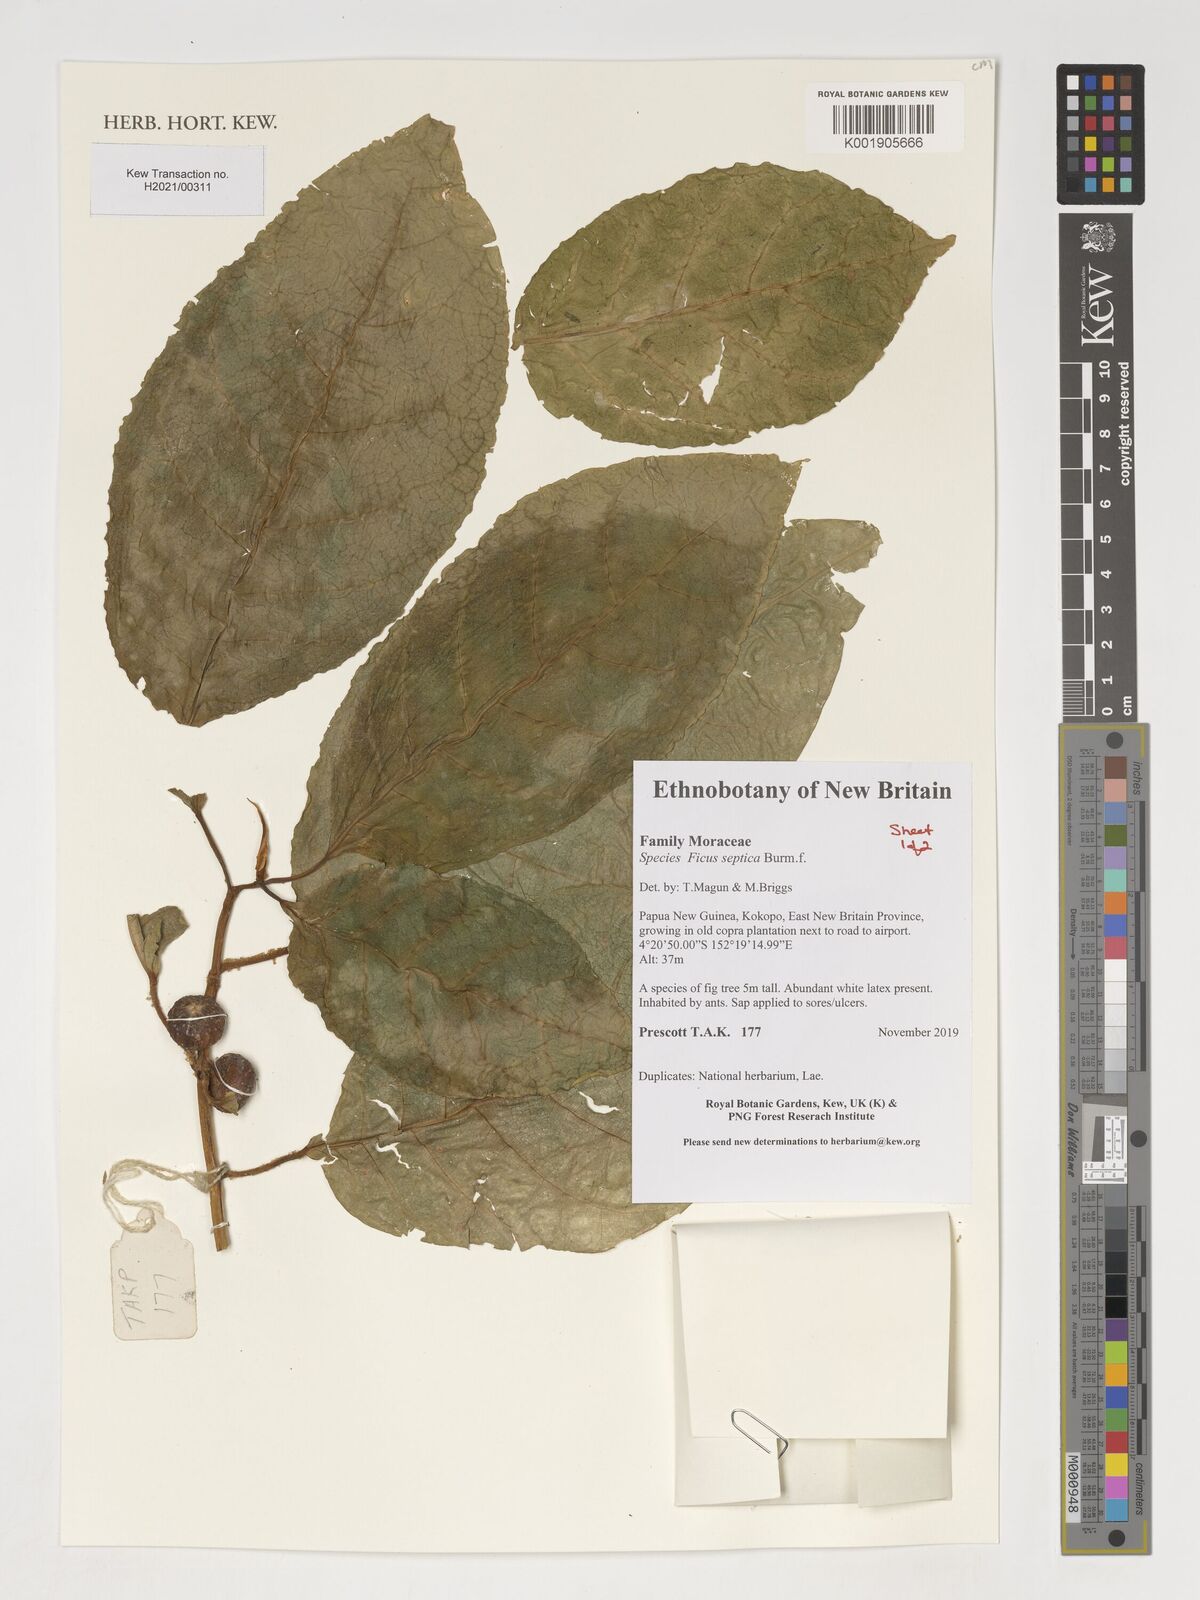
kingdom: Plantae
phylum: Tracheophyta
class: Magnoliopsida
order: Rosales
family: Moraceae
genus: Ficus
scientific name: Ficus septica
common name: Septic fig
